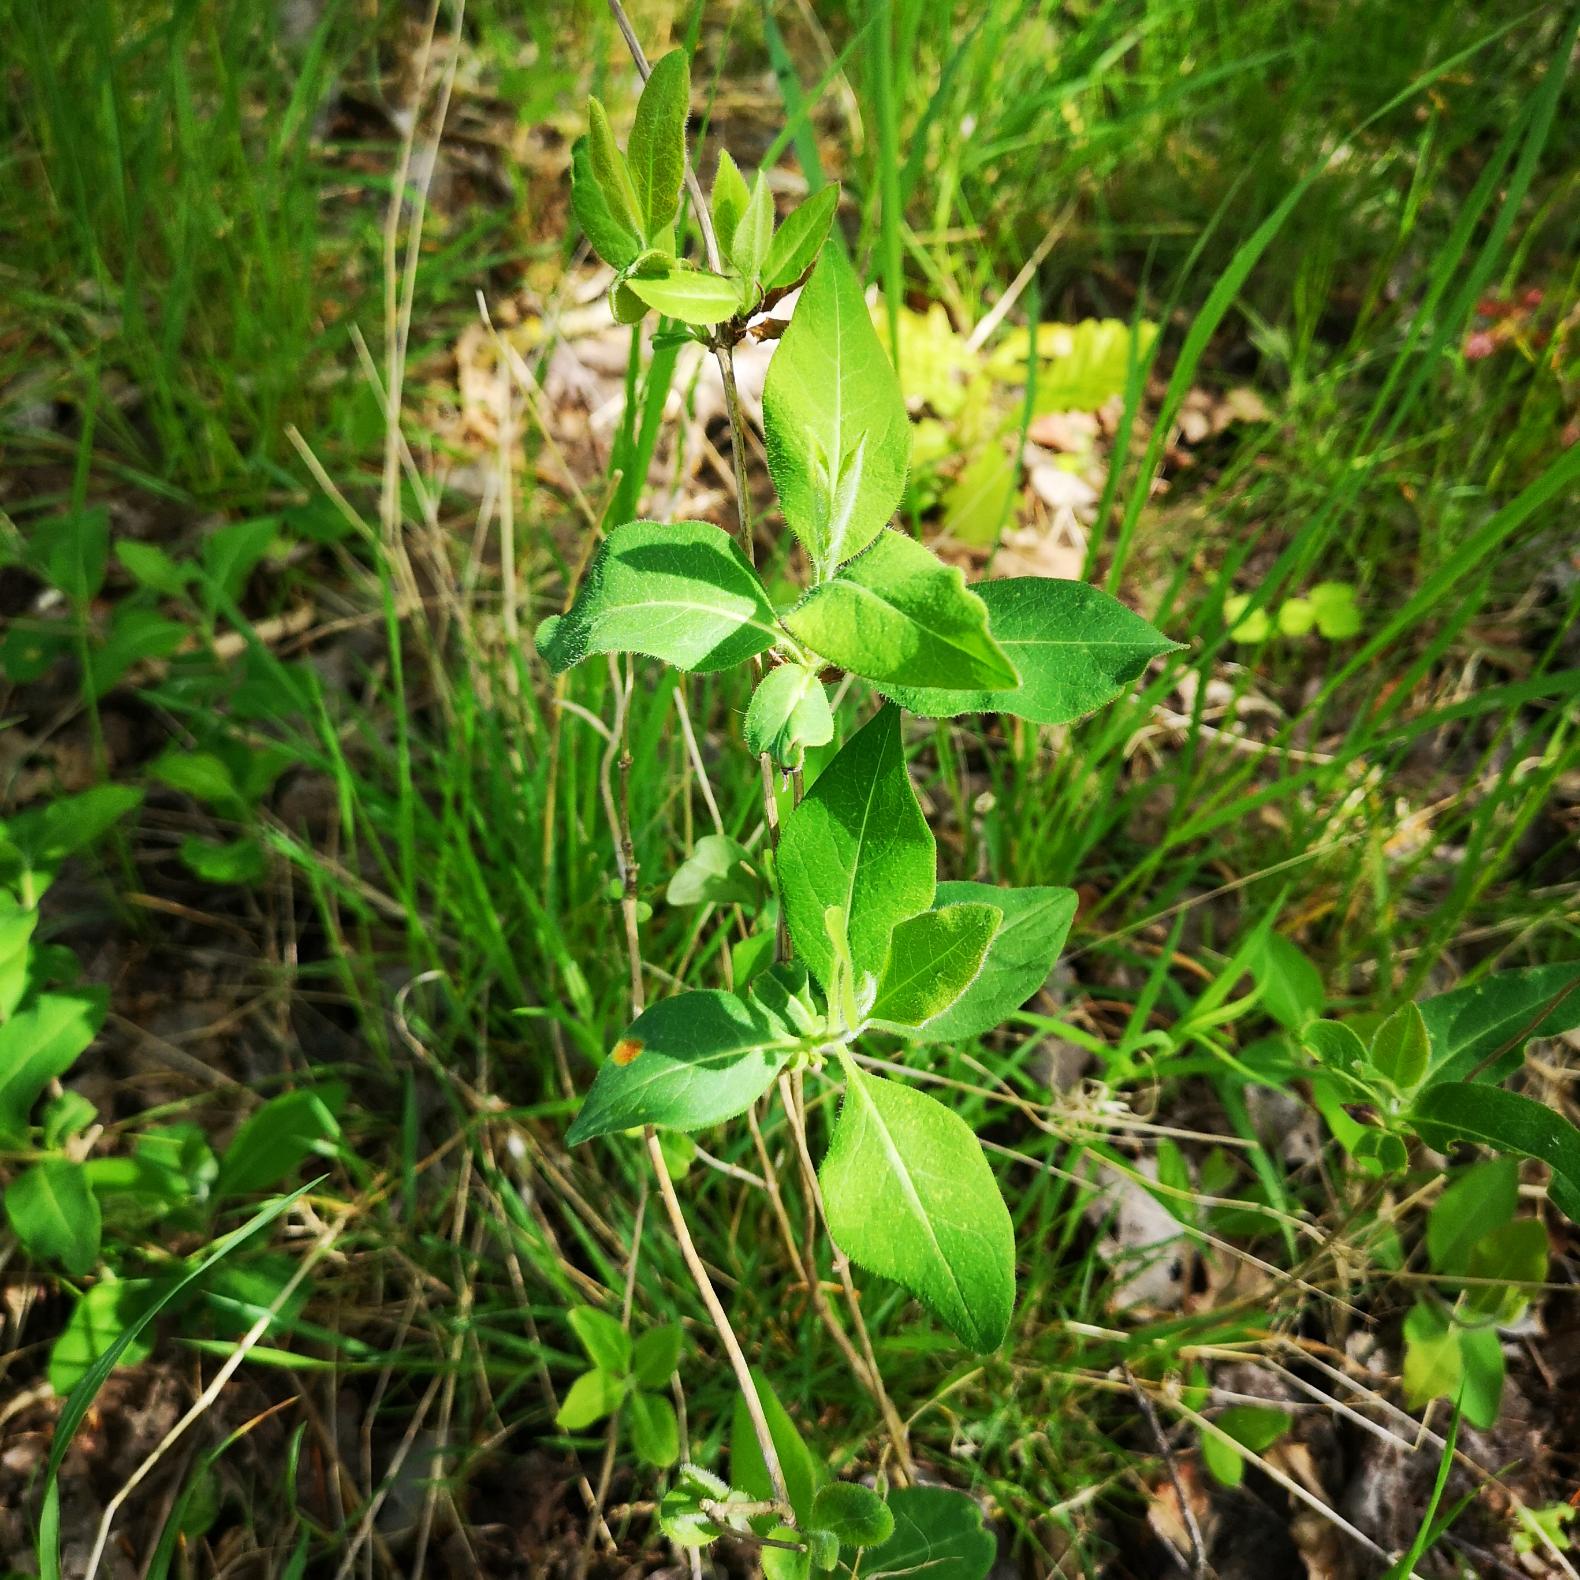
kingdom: Plantae
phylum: Tracheophyta
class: Magnoliopsida
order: Dipsacales
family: Caprifoliaceae
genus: Lonicera
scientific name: Lonicera periclymenum
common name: Almindelig gedeblad
